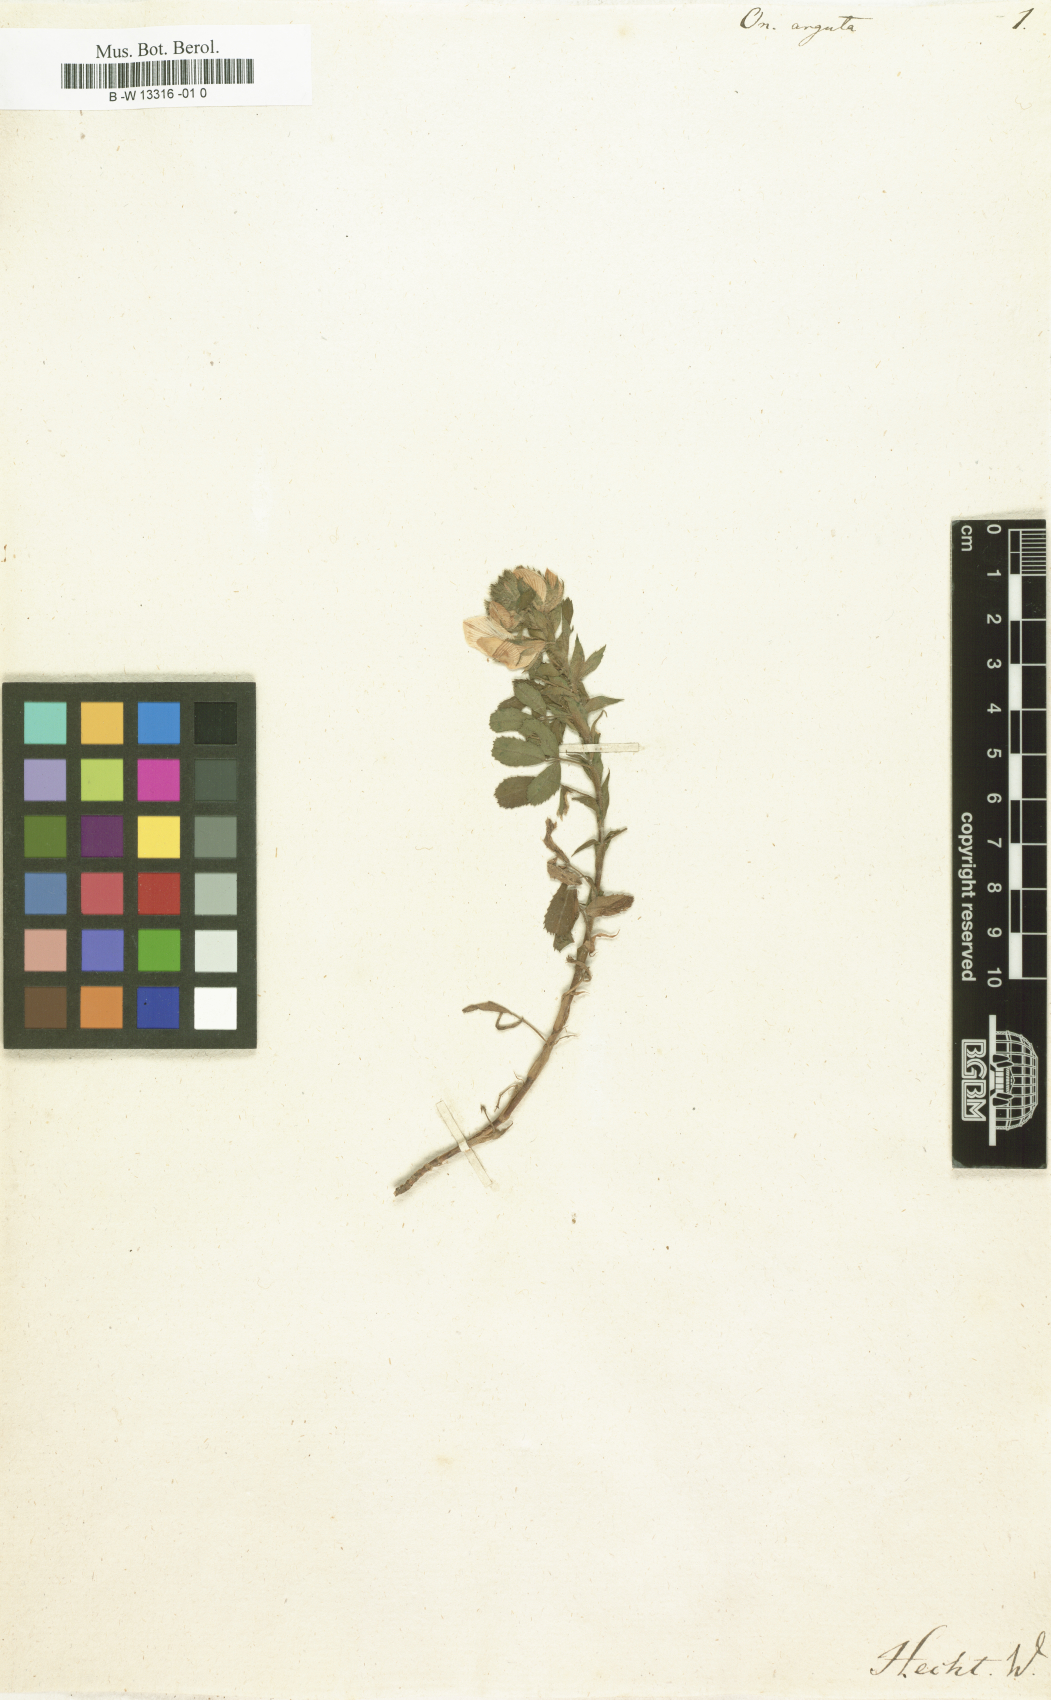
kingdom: Plantae
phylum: Tracheophyta
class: Magnoliopsida
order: Fabales
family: Fabaceae
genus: Ononis
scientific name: Ononis
